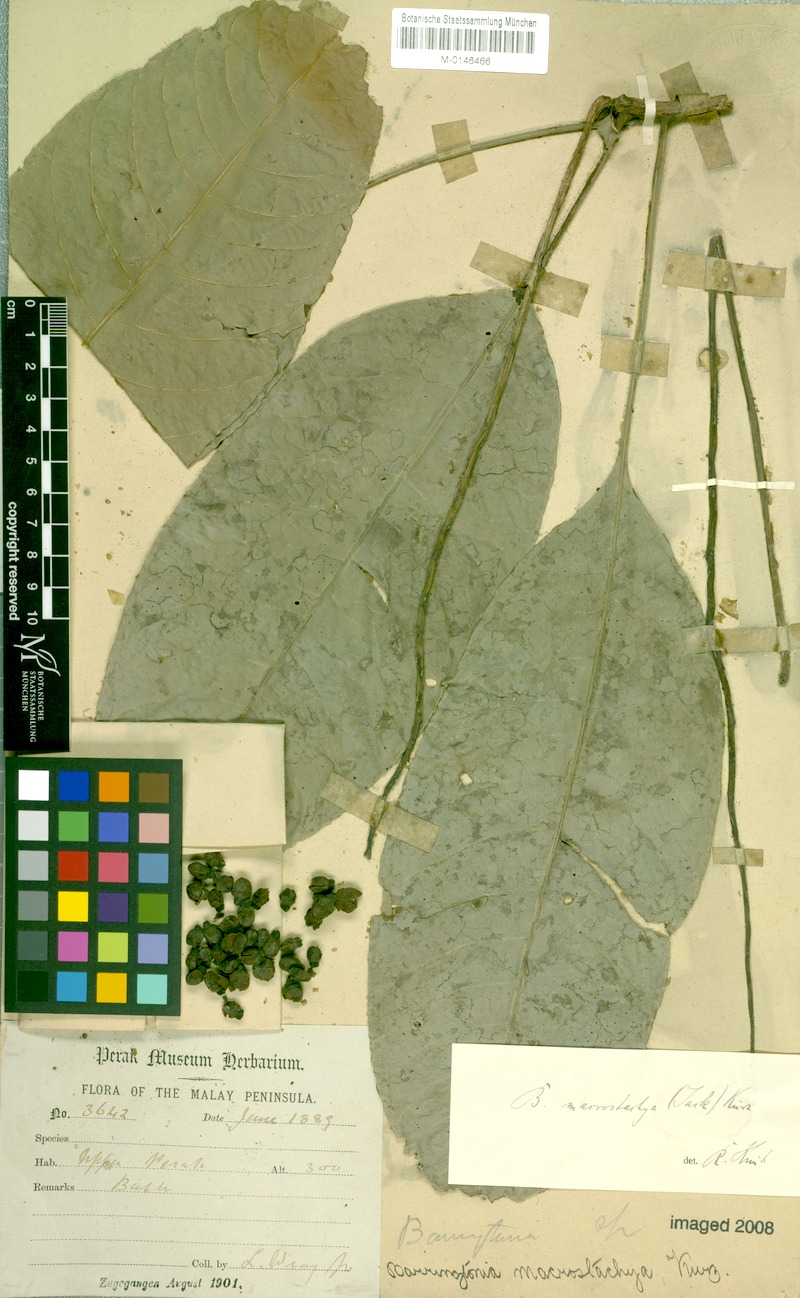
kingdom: Plantae
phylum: Tracheophyta
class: Magnoliopsida
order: Ericales
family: Lecythidaceae
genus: Barringtonia
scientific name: Barringtonia macrostachya
